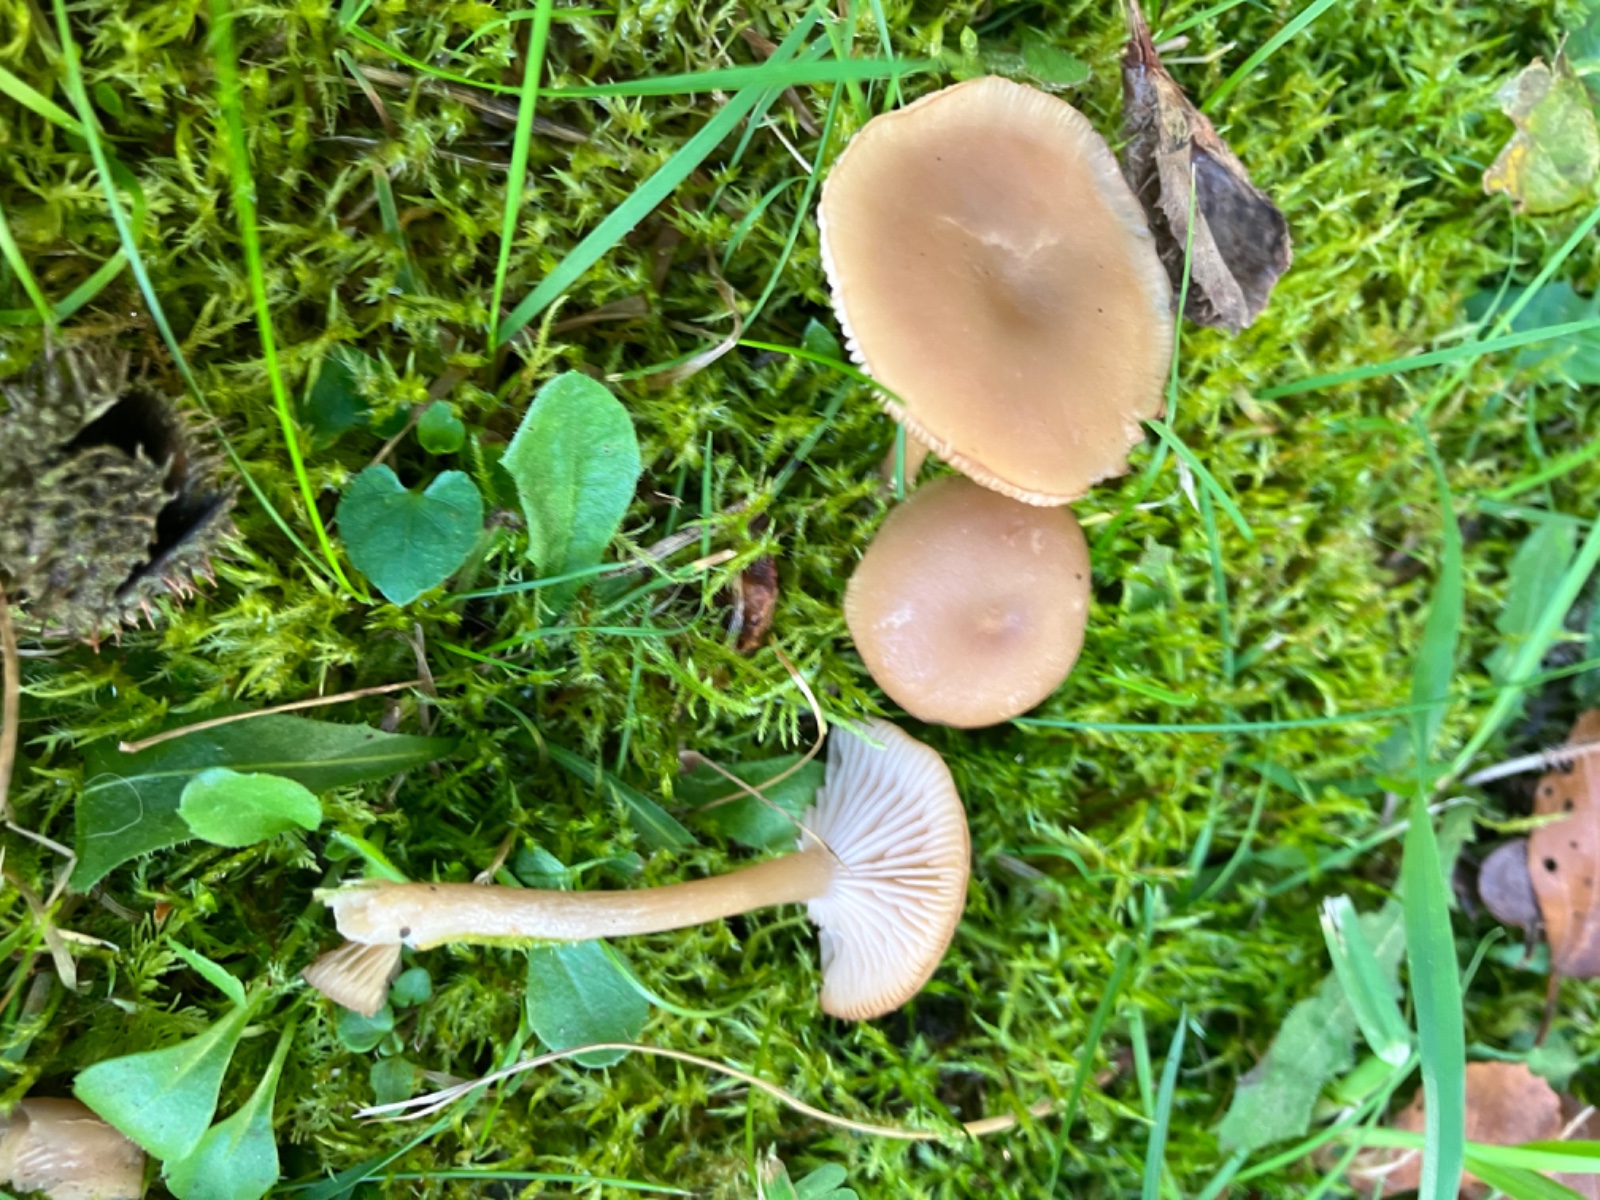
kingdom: Fungi
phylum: Basidiomycota
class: Agaricomycetes
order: Agaricales
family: Tricholomataceae
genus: Clitocybe
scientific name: Clitocybe fragrans
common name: vellugtende tragthat
